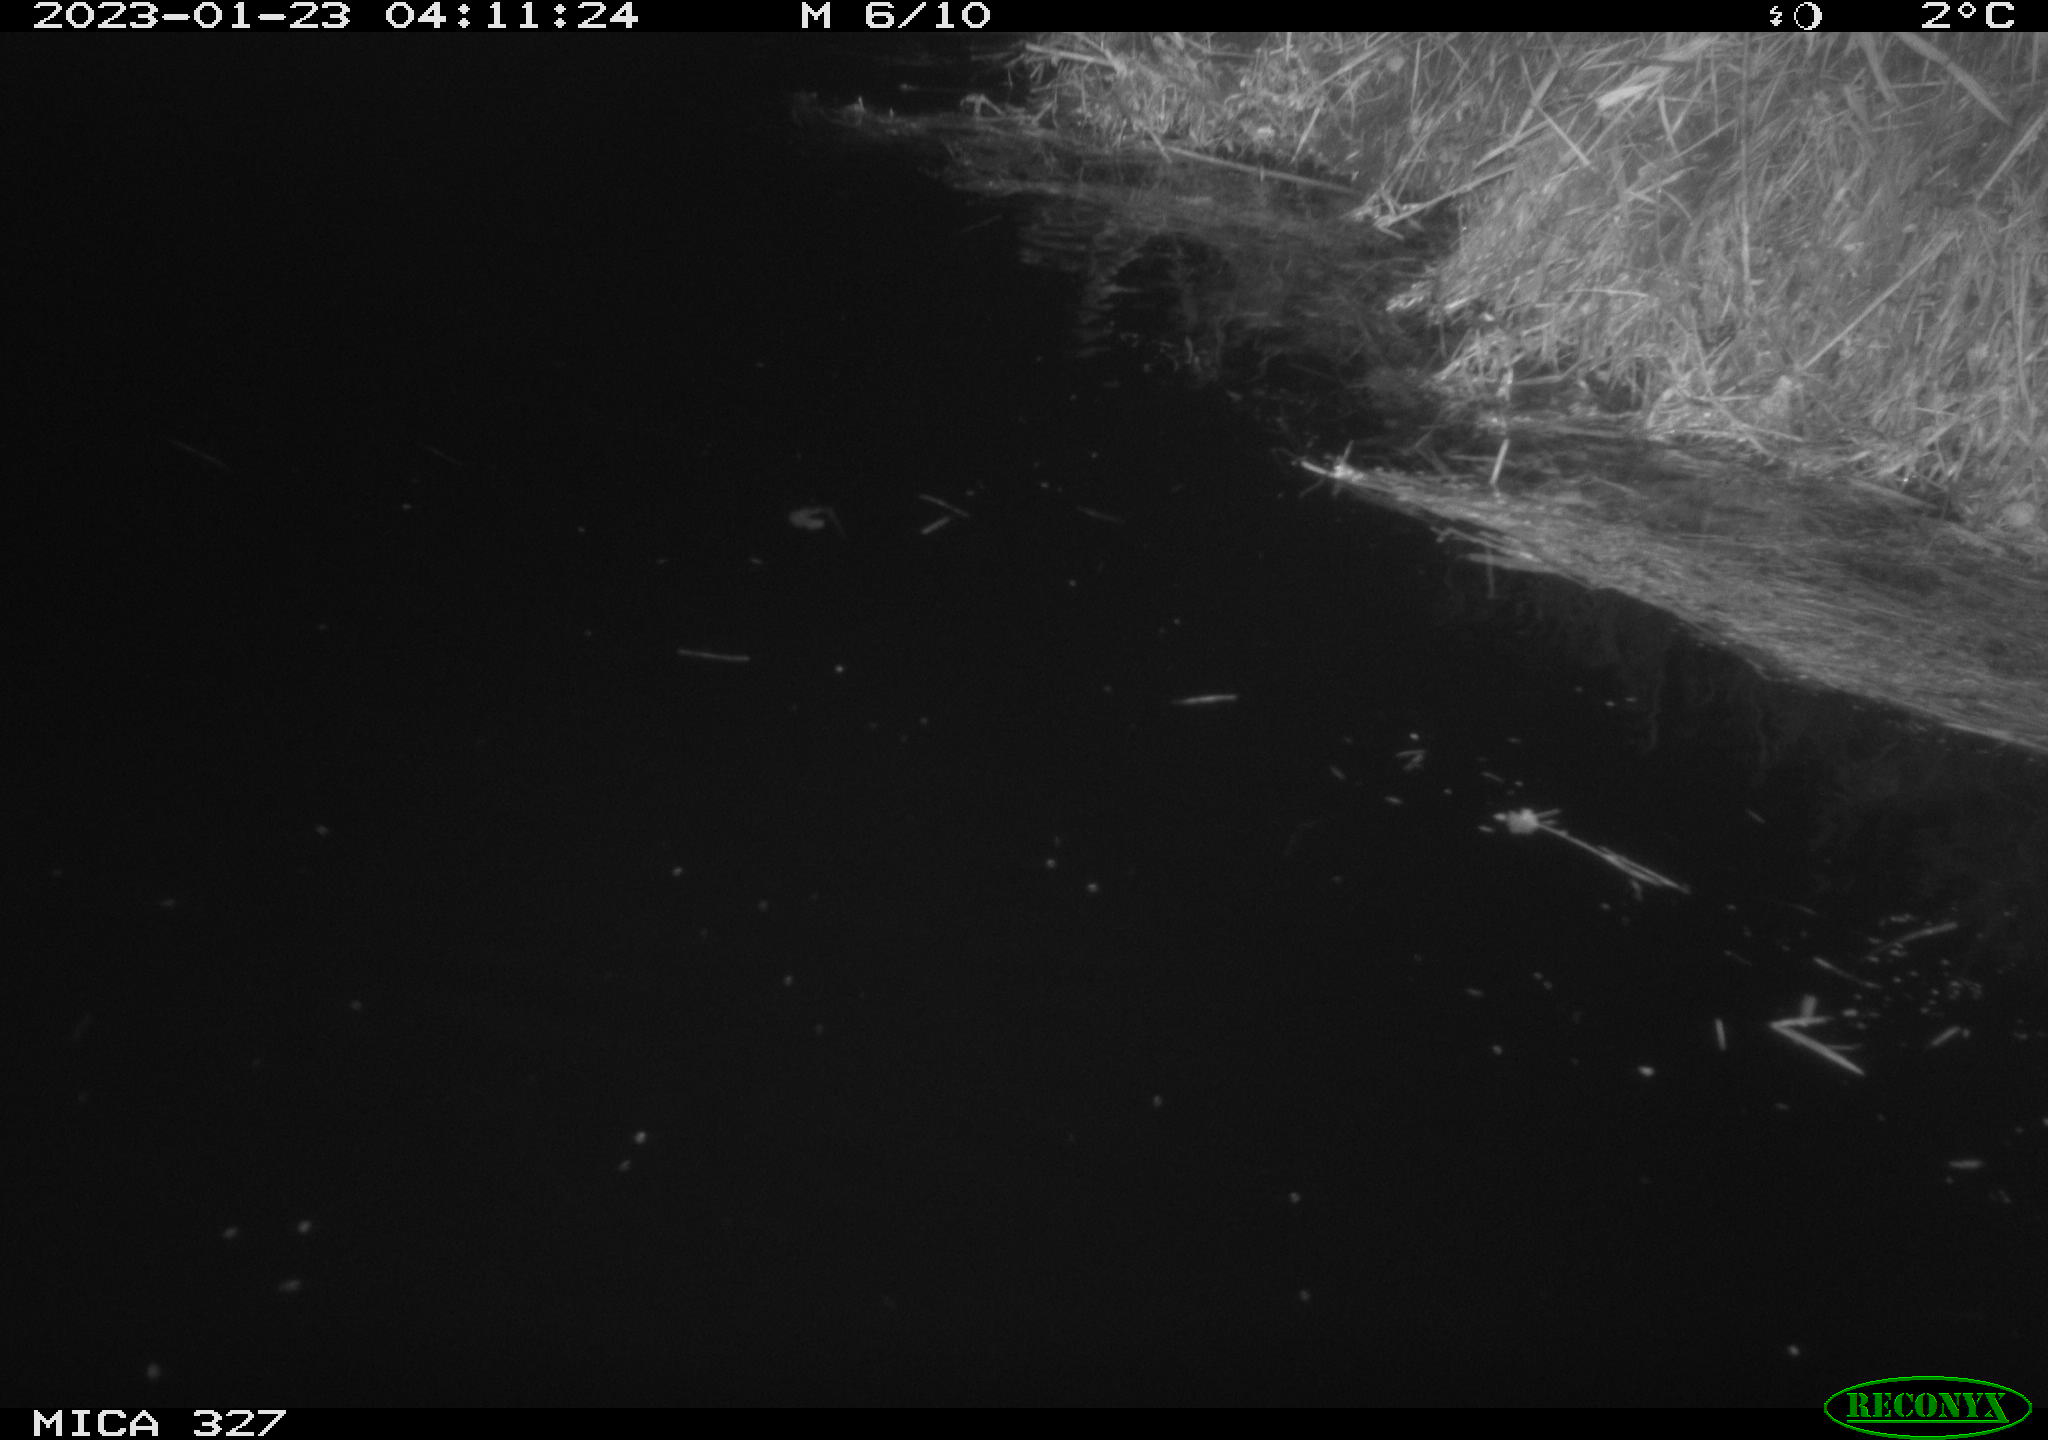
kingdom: Animalia
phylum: Chordata
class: Mammalia
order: Rodentia
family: Cricetidae
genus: Ondatra
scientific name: Ondatra zibethicus
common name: Muskrat
